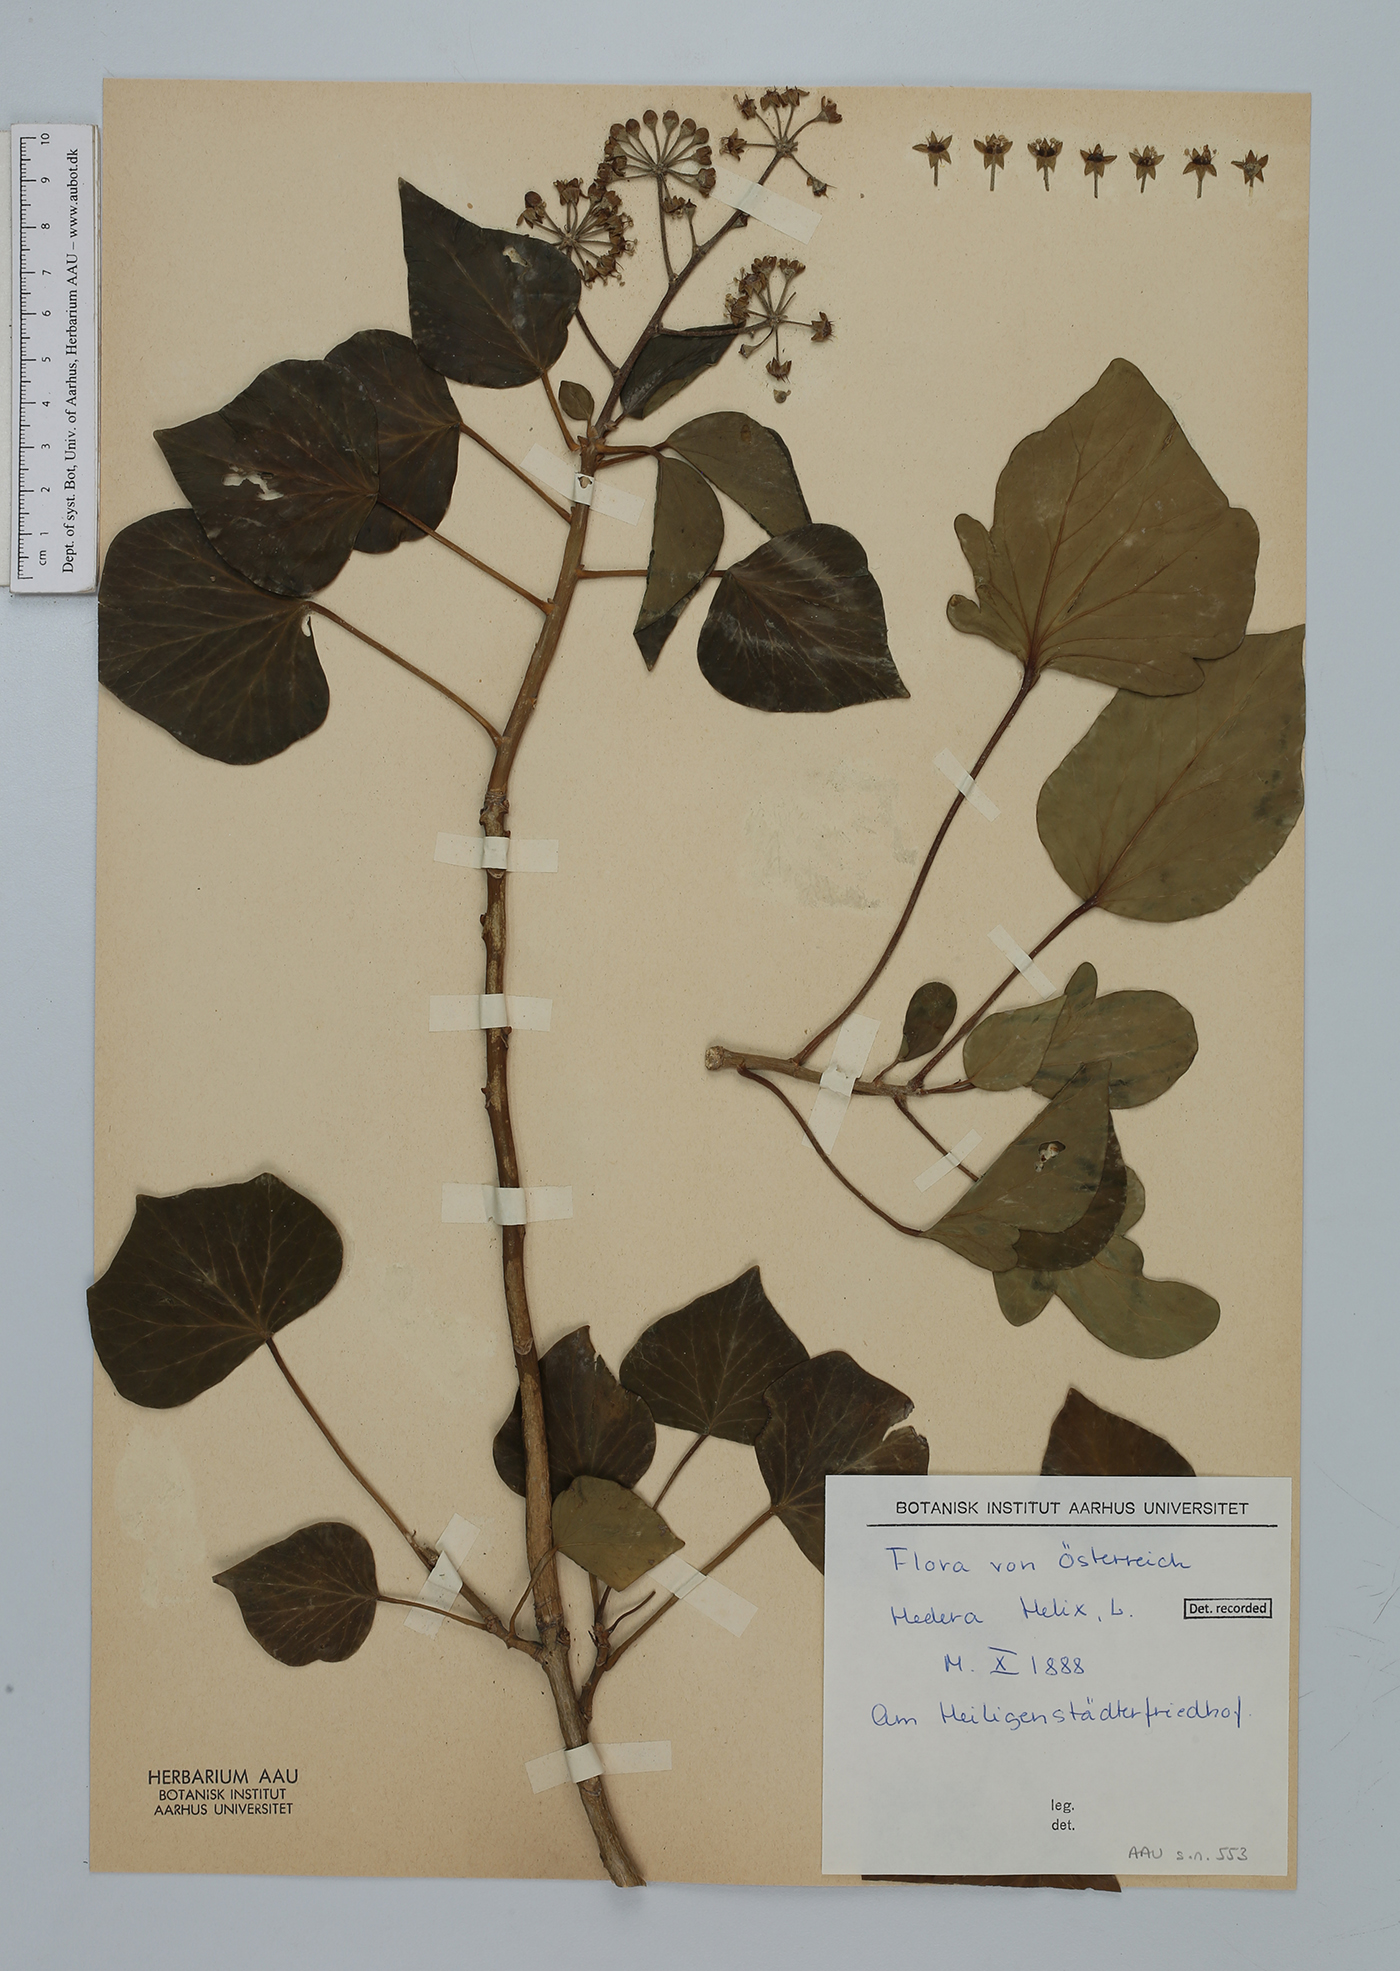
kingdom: Plantae
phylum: Tracheophyta
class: Magnoliopsida
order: Apiales
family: Araliaceae
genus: Hedera
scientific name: Hedera helix
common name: Ivy
